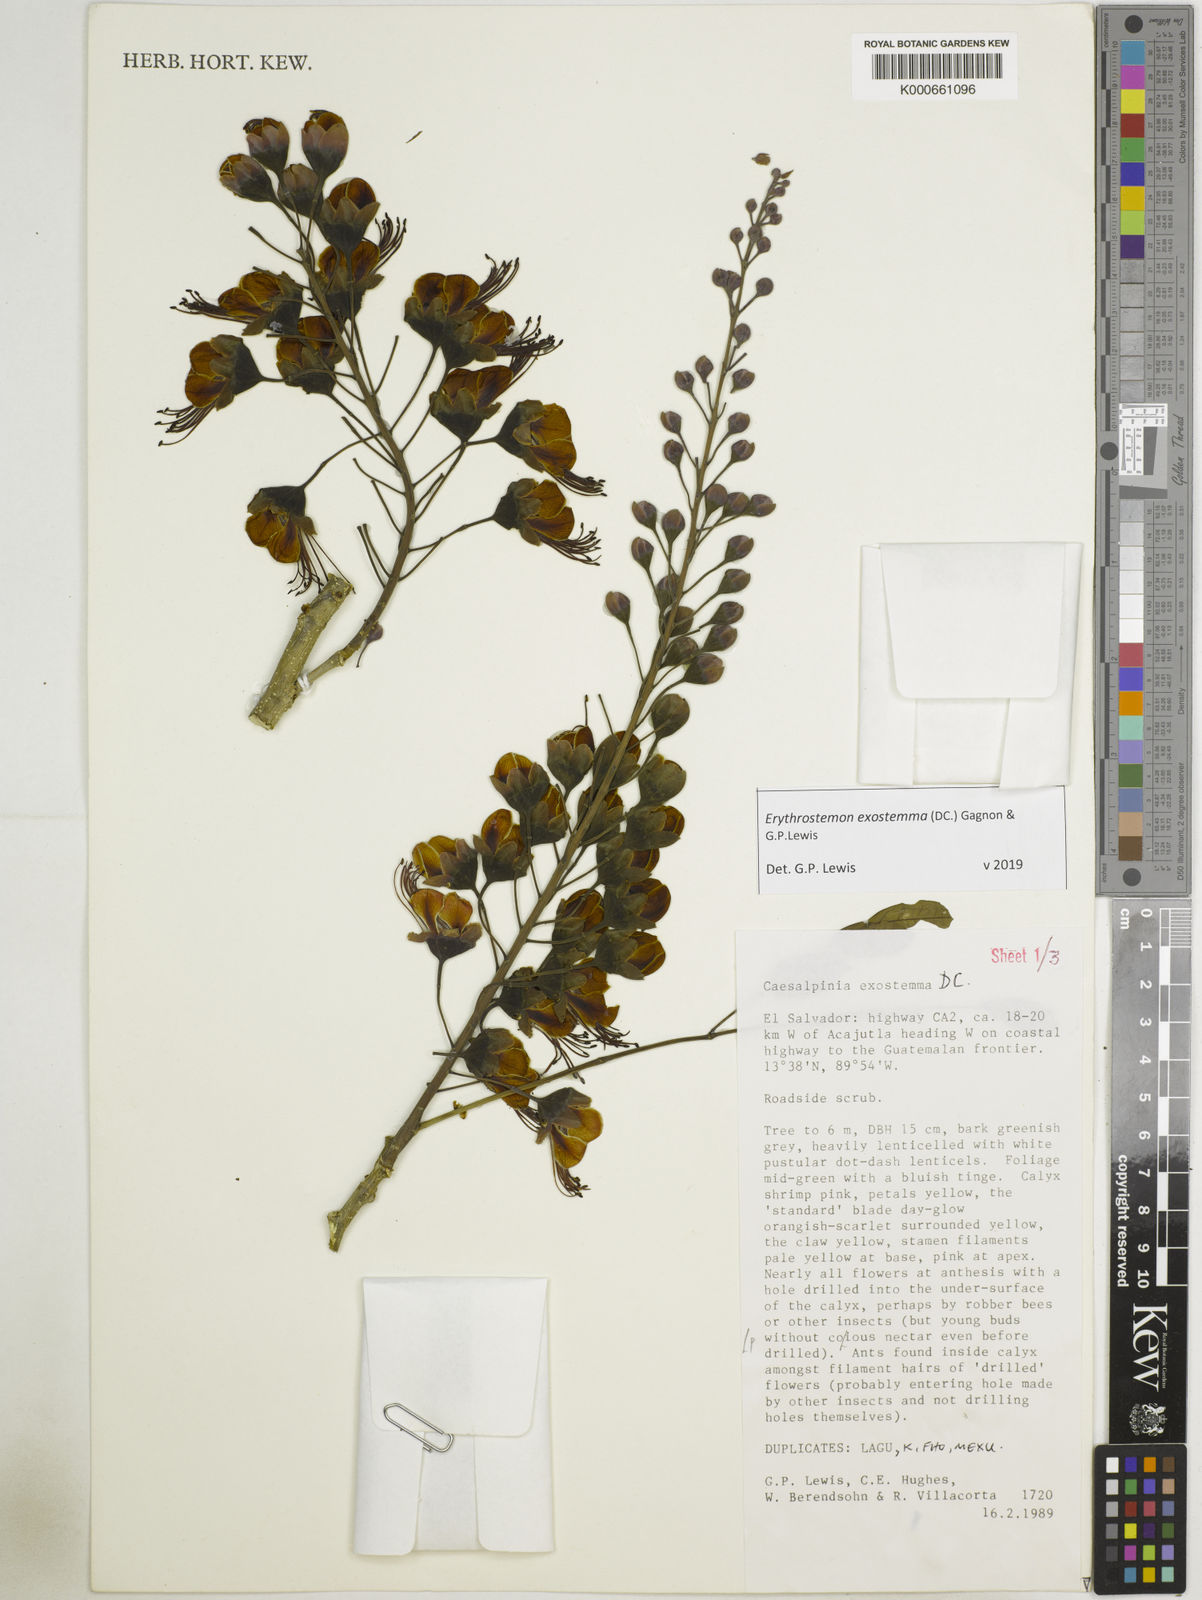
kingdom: Plantae
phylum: Tracheophyta
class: Magnoliopsida
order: Fabales
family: Fabaceae
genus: Erythrostemon
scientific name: Erythrostemon exostemma
